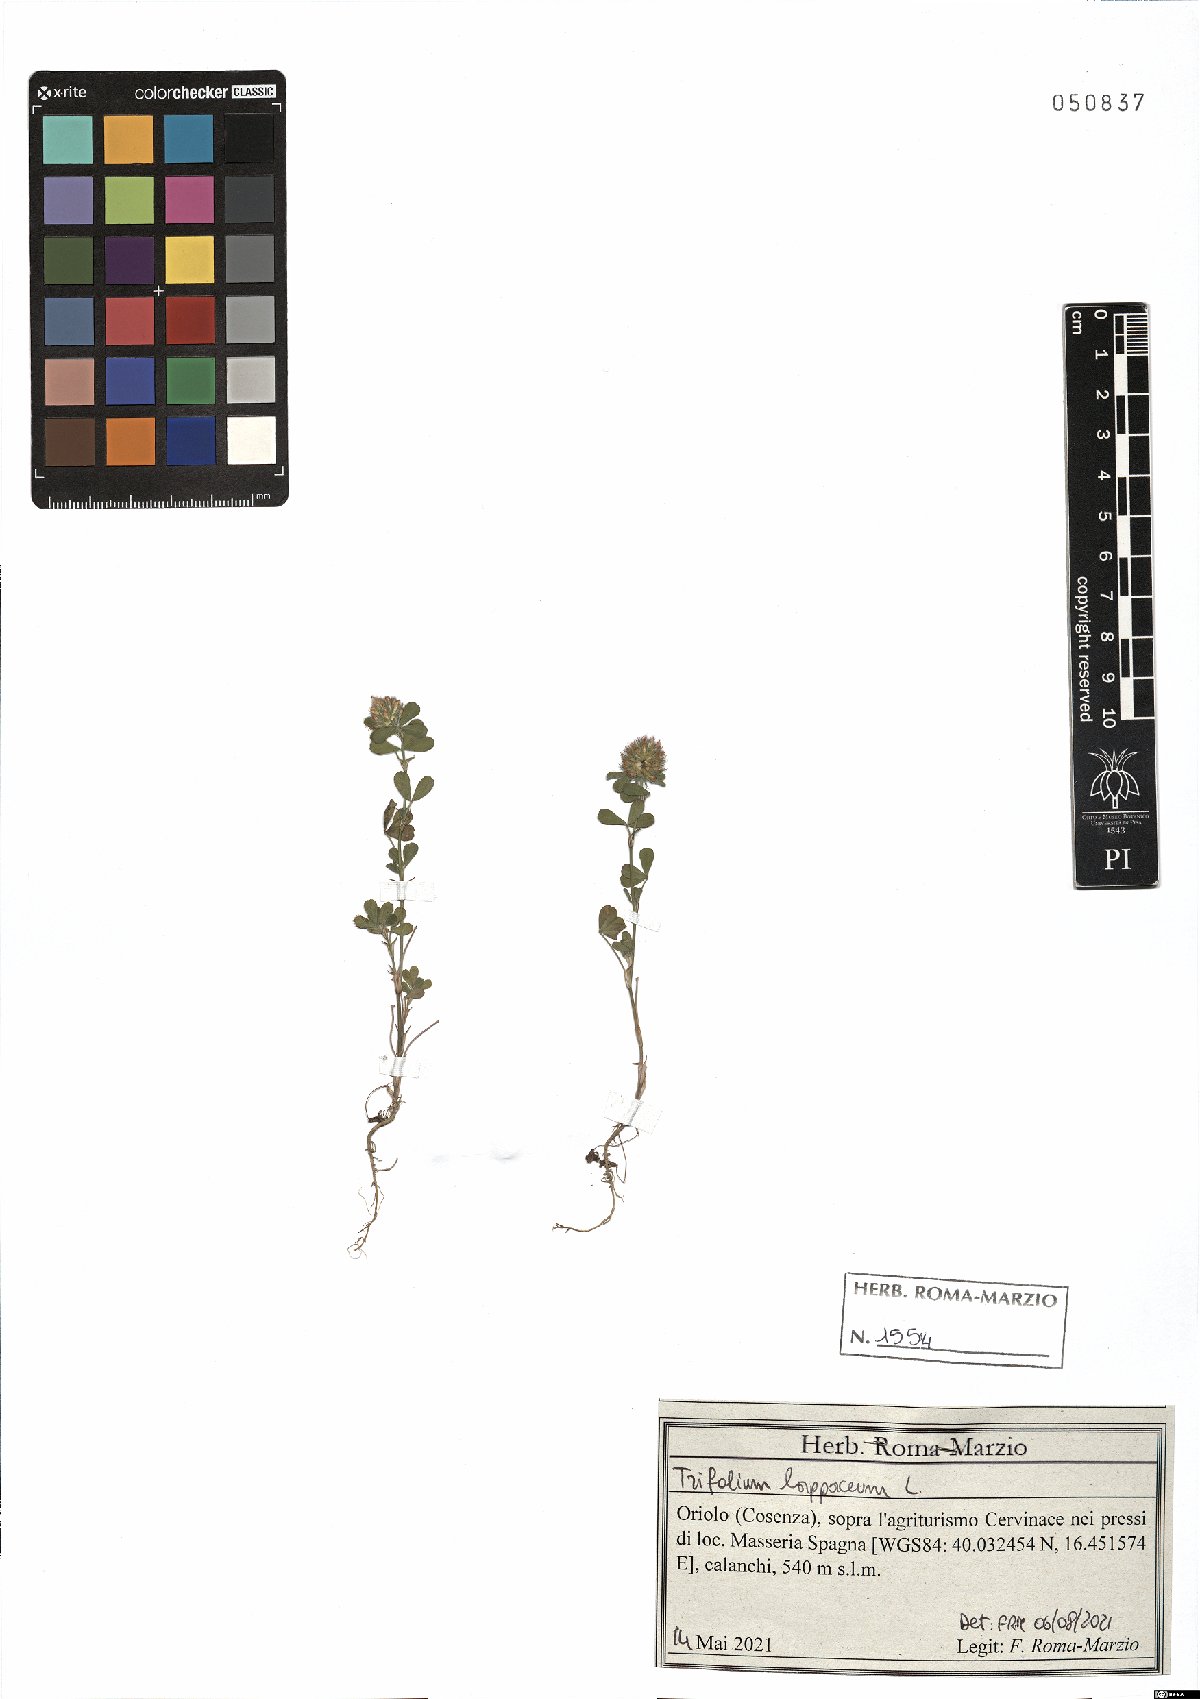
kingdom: Plantae
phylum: Tracheophyta
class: Magnoliopsida
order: Fabales
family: Fabaceae
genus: Trifolium
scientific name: Trifolium lappaceum
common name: Bur clover
